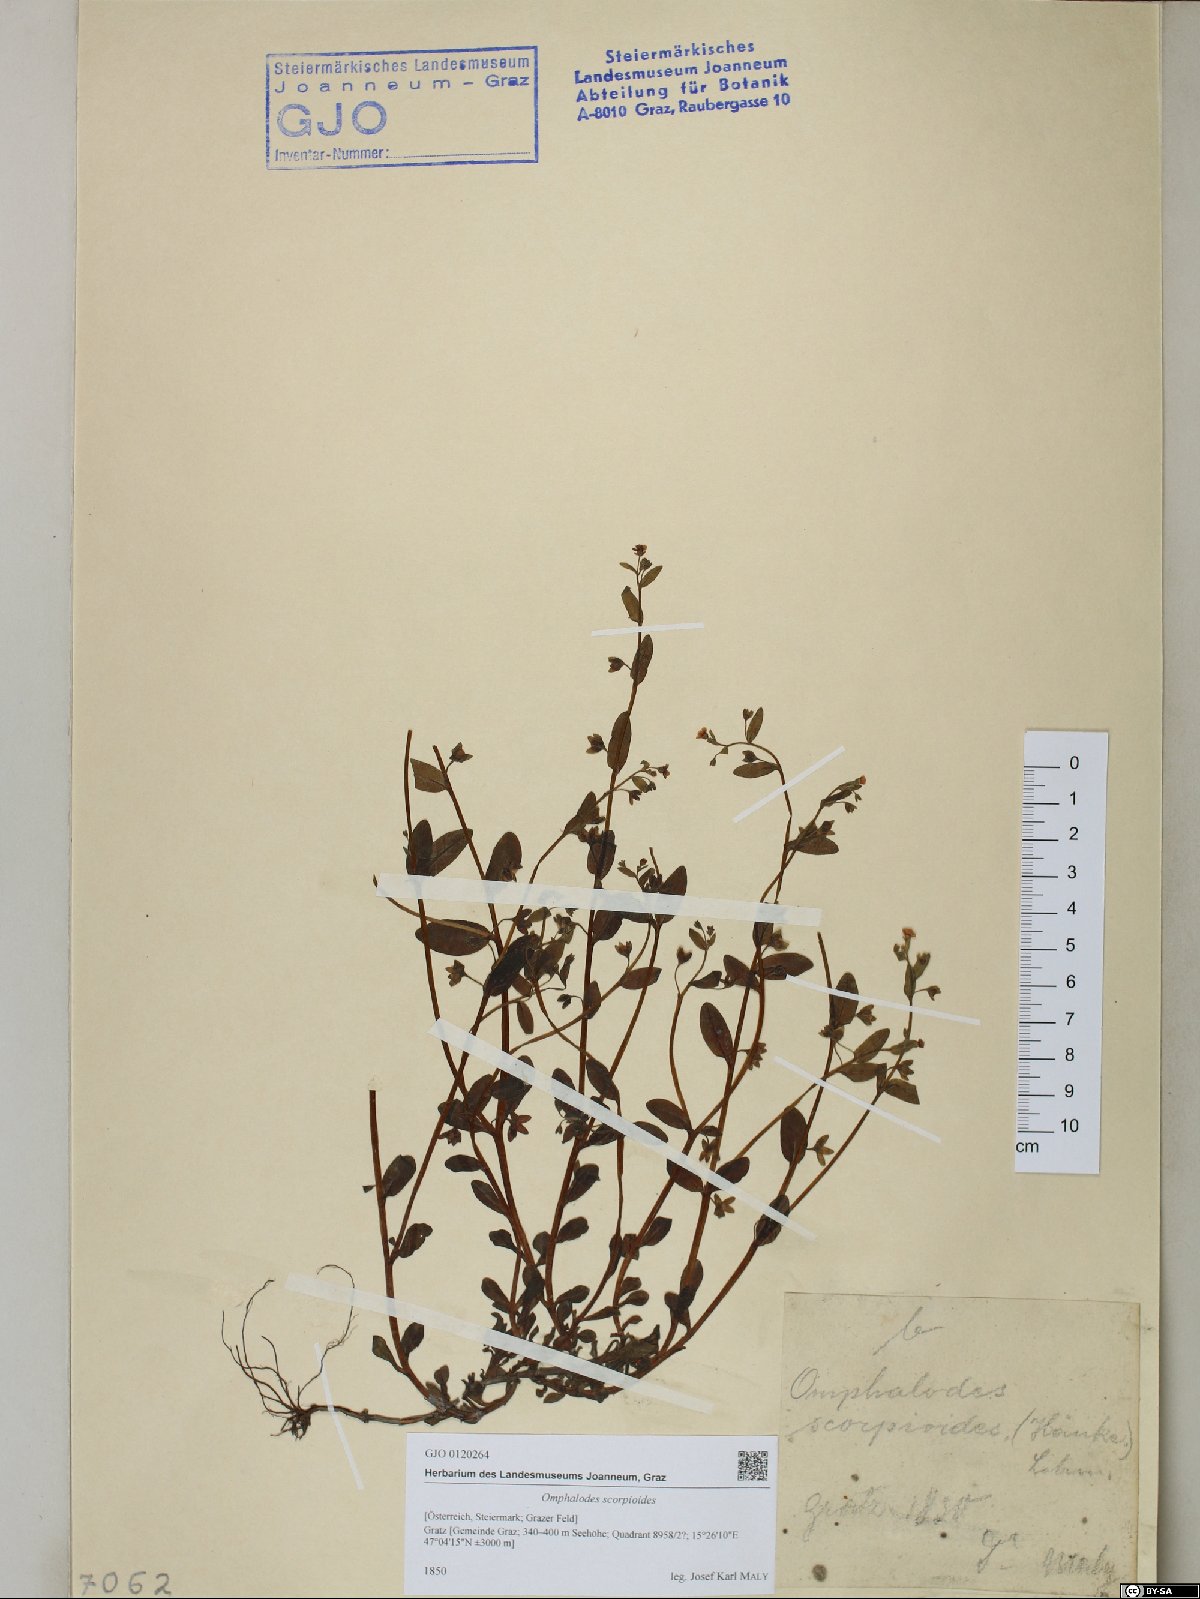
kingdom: Plantae
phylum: Tracheophyta
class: Magnoliopsida
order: Boraginales
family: Boraginaceae
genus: Memoremea
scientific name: Memoremea scorpioides
